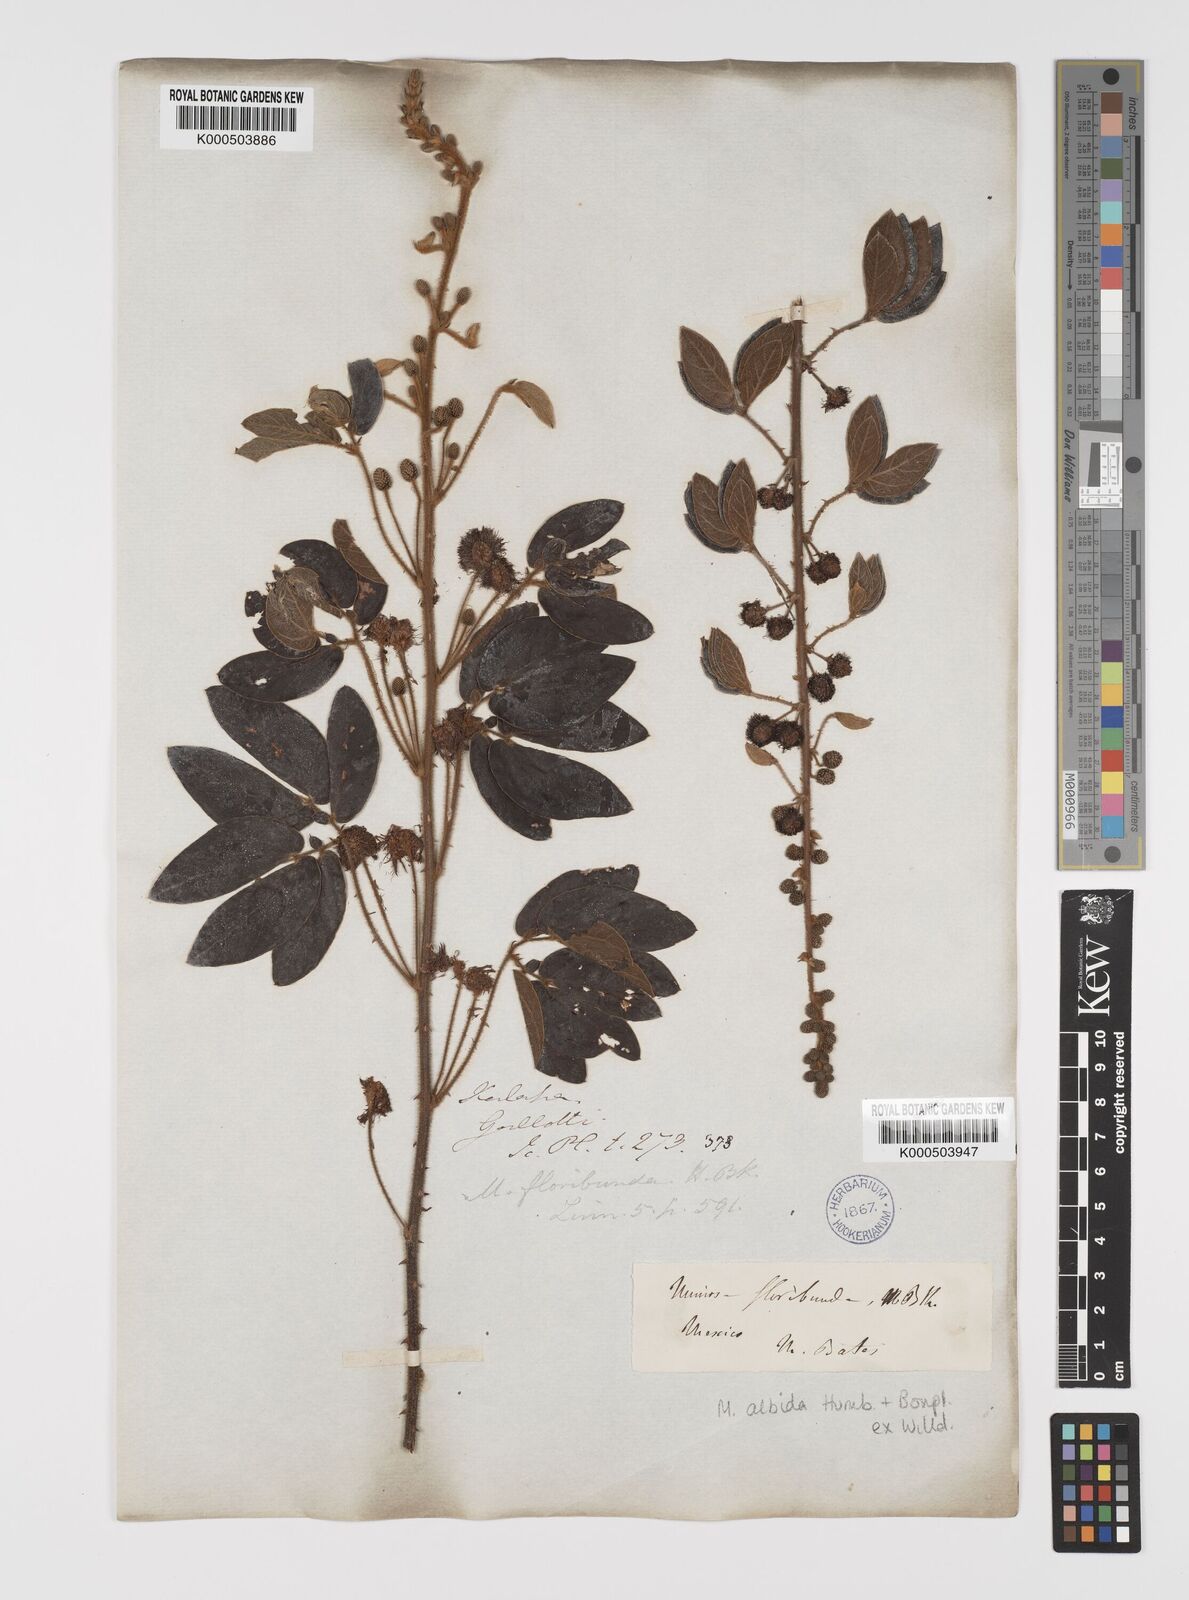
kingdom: Plantae
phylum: Tracheophyta
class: Magnoliopsida
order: Fabales
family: Fabaceae
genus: Mimosa
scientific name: Mimosa albida
